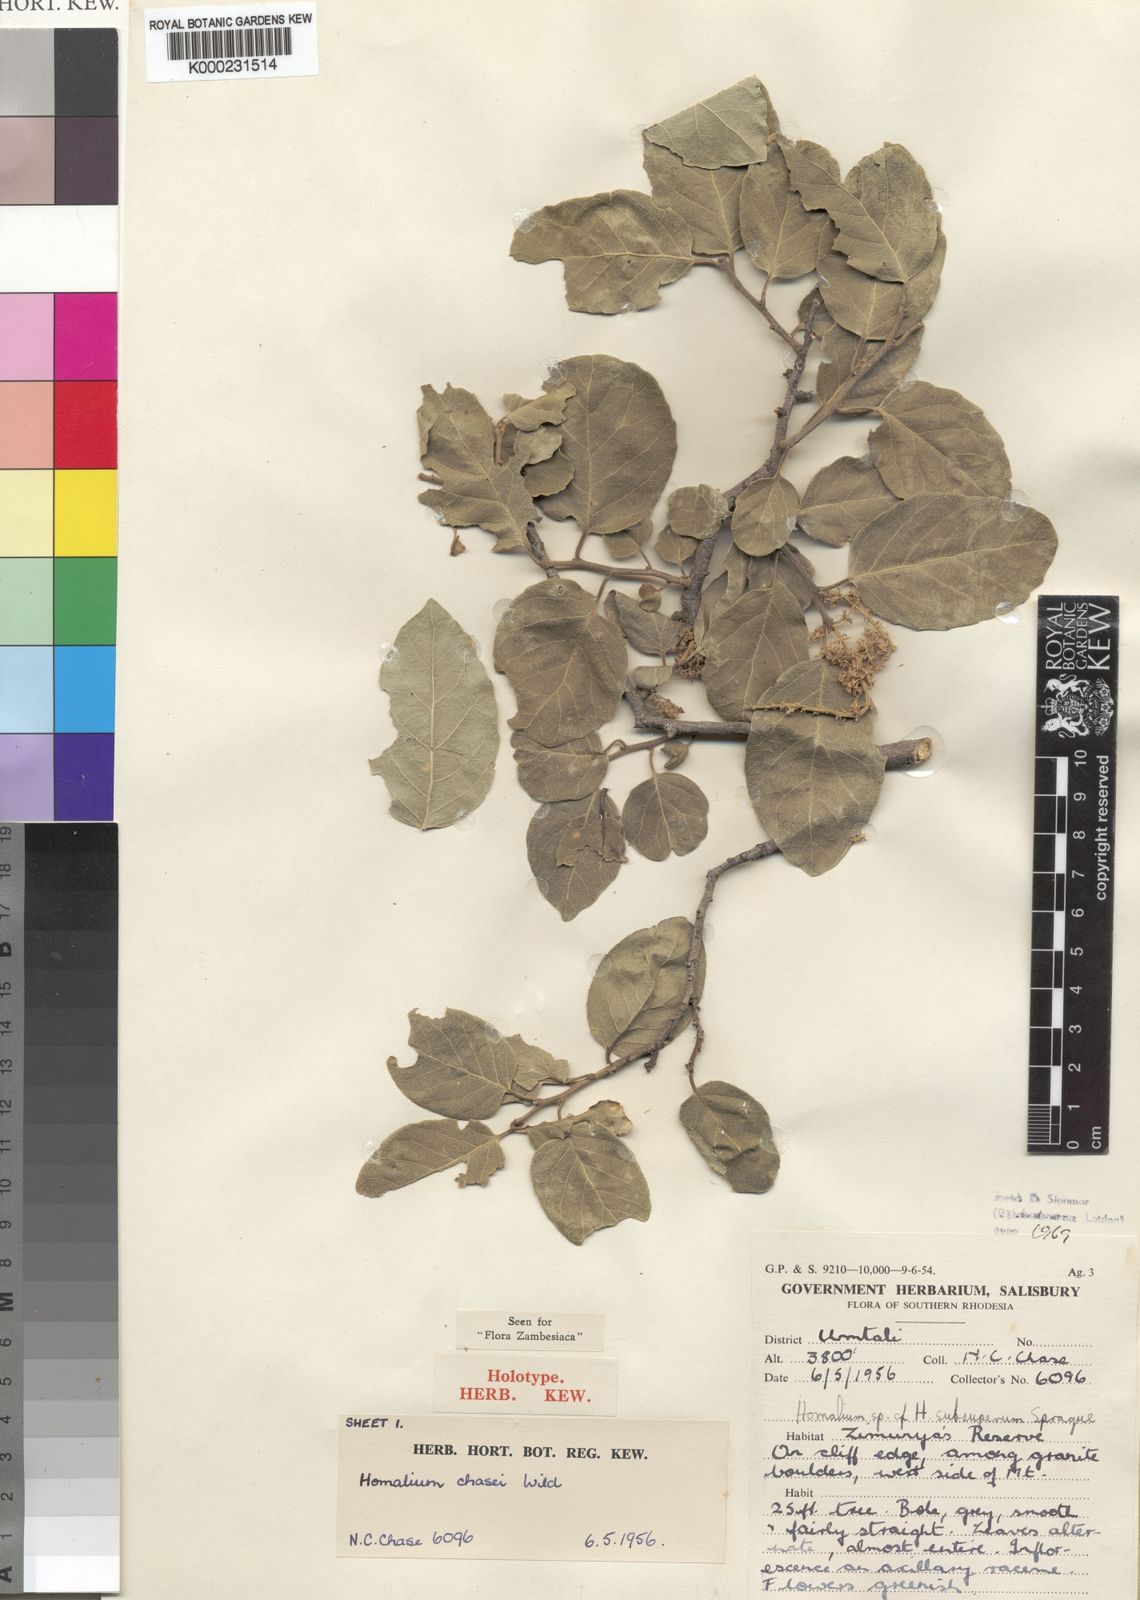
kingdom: Plantae
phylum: Tracheophyta
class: Magnoliopsida
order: Malpighiales
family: Salicaceae
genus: Homalium
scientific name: Homalium dentatum
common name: Brown ironwood
